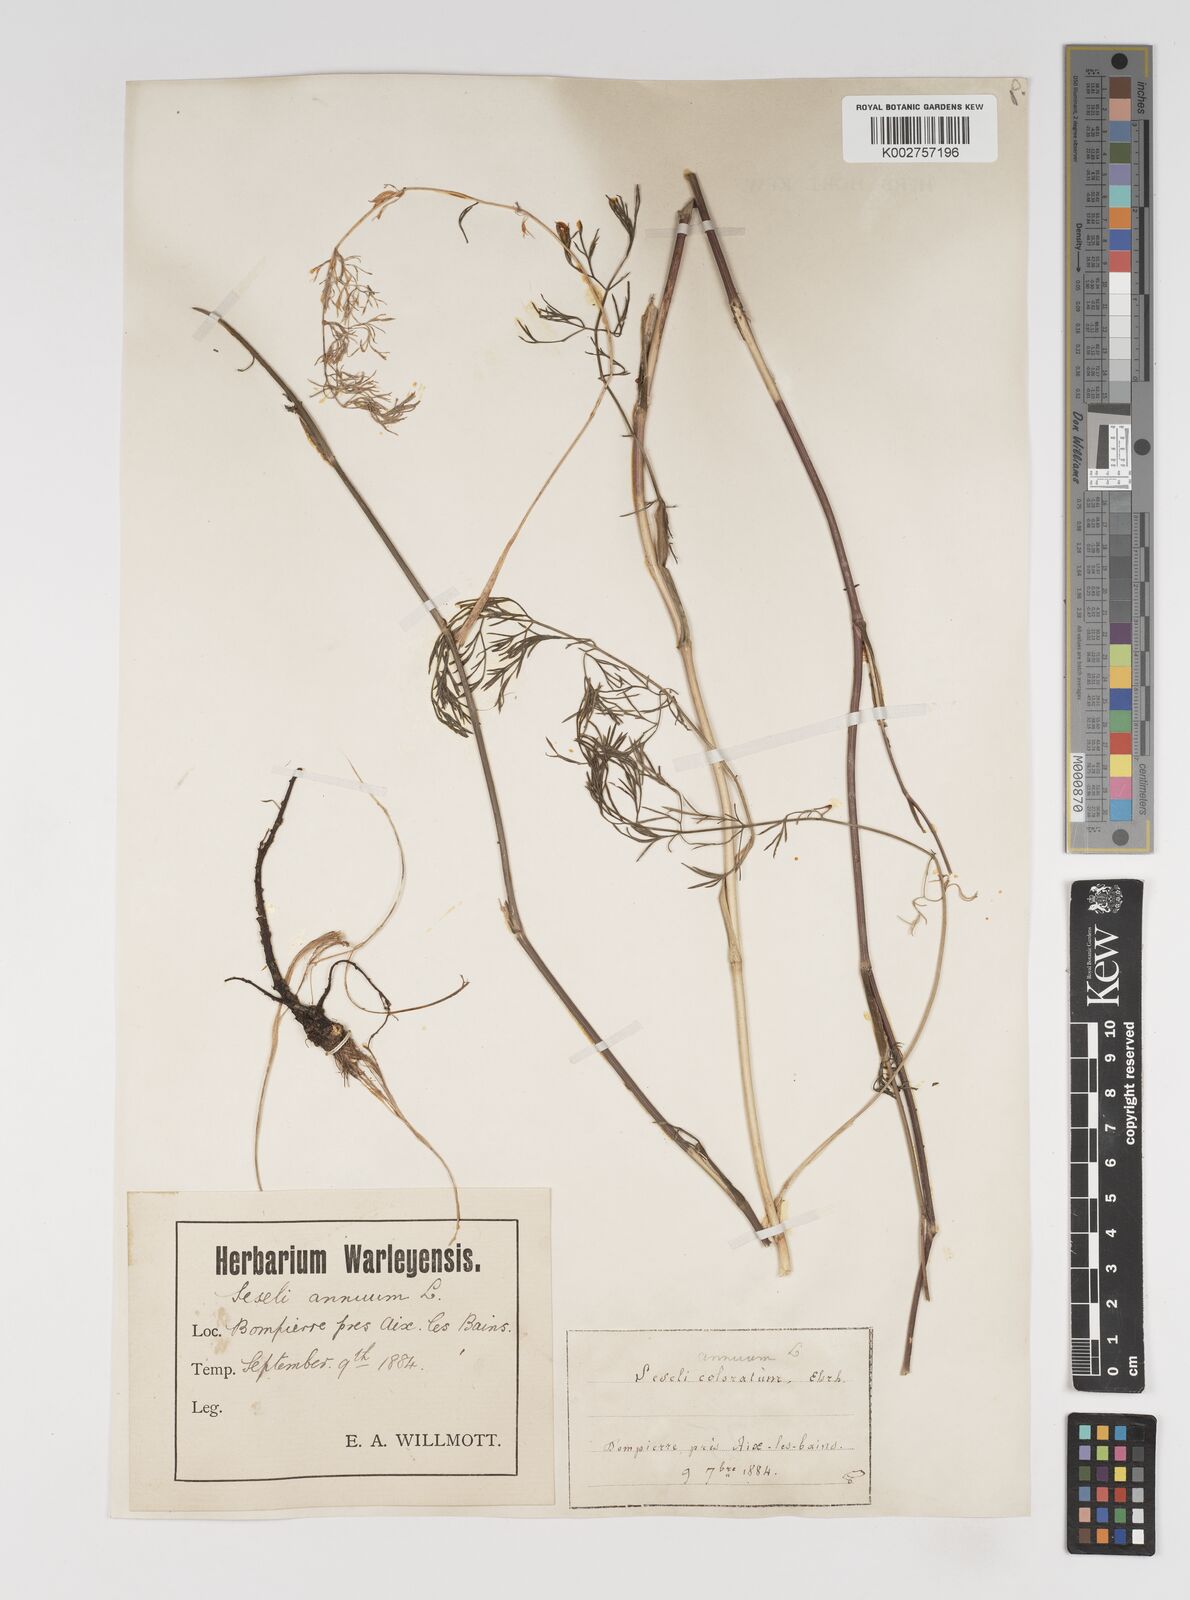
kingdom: Plantae
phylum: Tracheophyta
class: Magnoliopsida
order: Apiales
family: Apiaceae
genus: Seseli
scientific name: Seseli annuum
